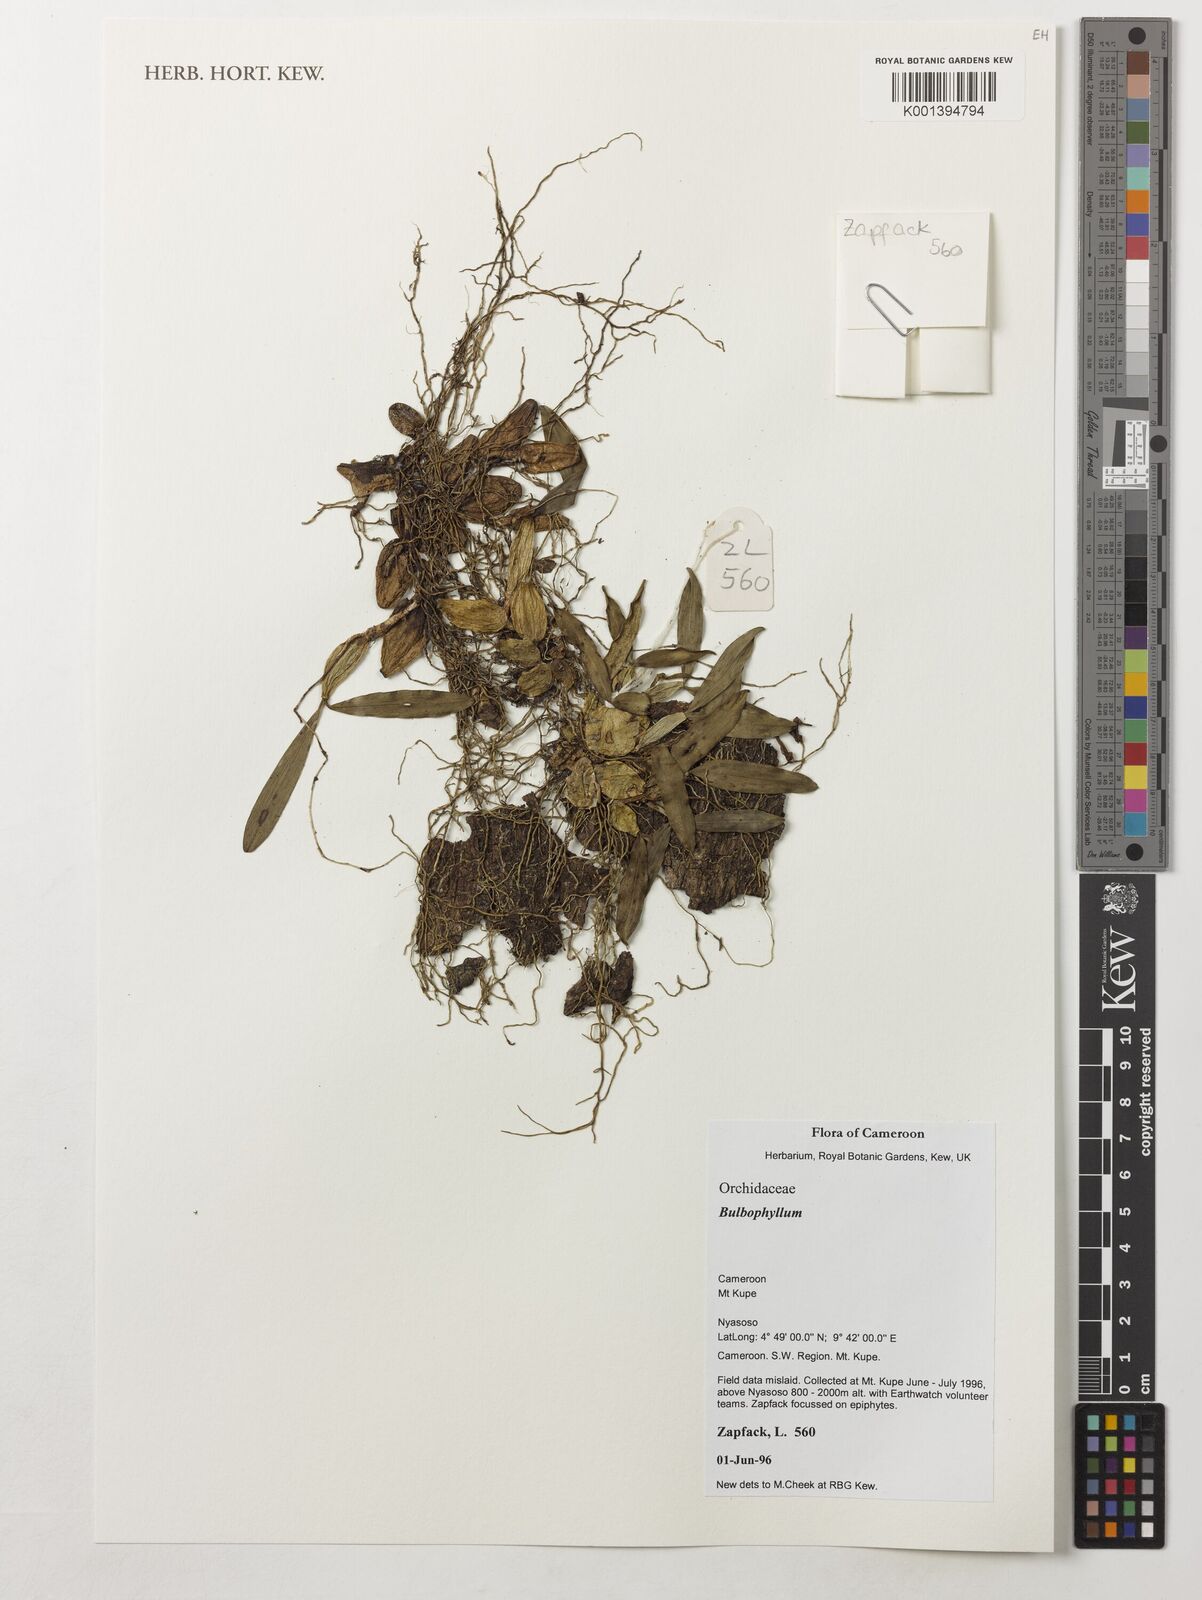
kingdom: Plantae
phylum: Tracheophyta
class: Liliopsida
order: Asparagales
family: Orchidaceae
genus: Bulbophyllum
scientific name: Bulbophyllum
